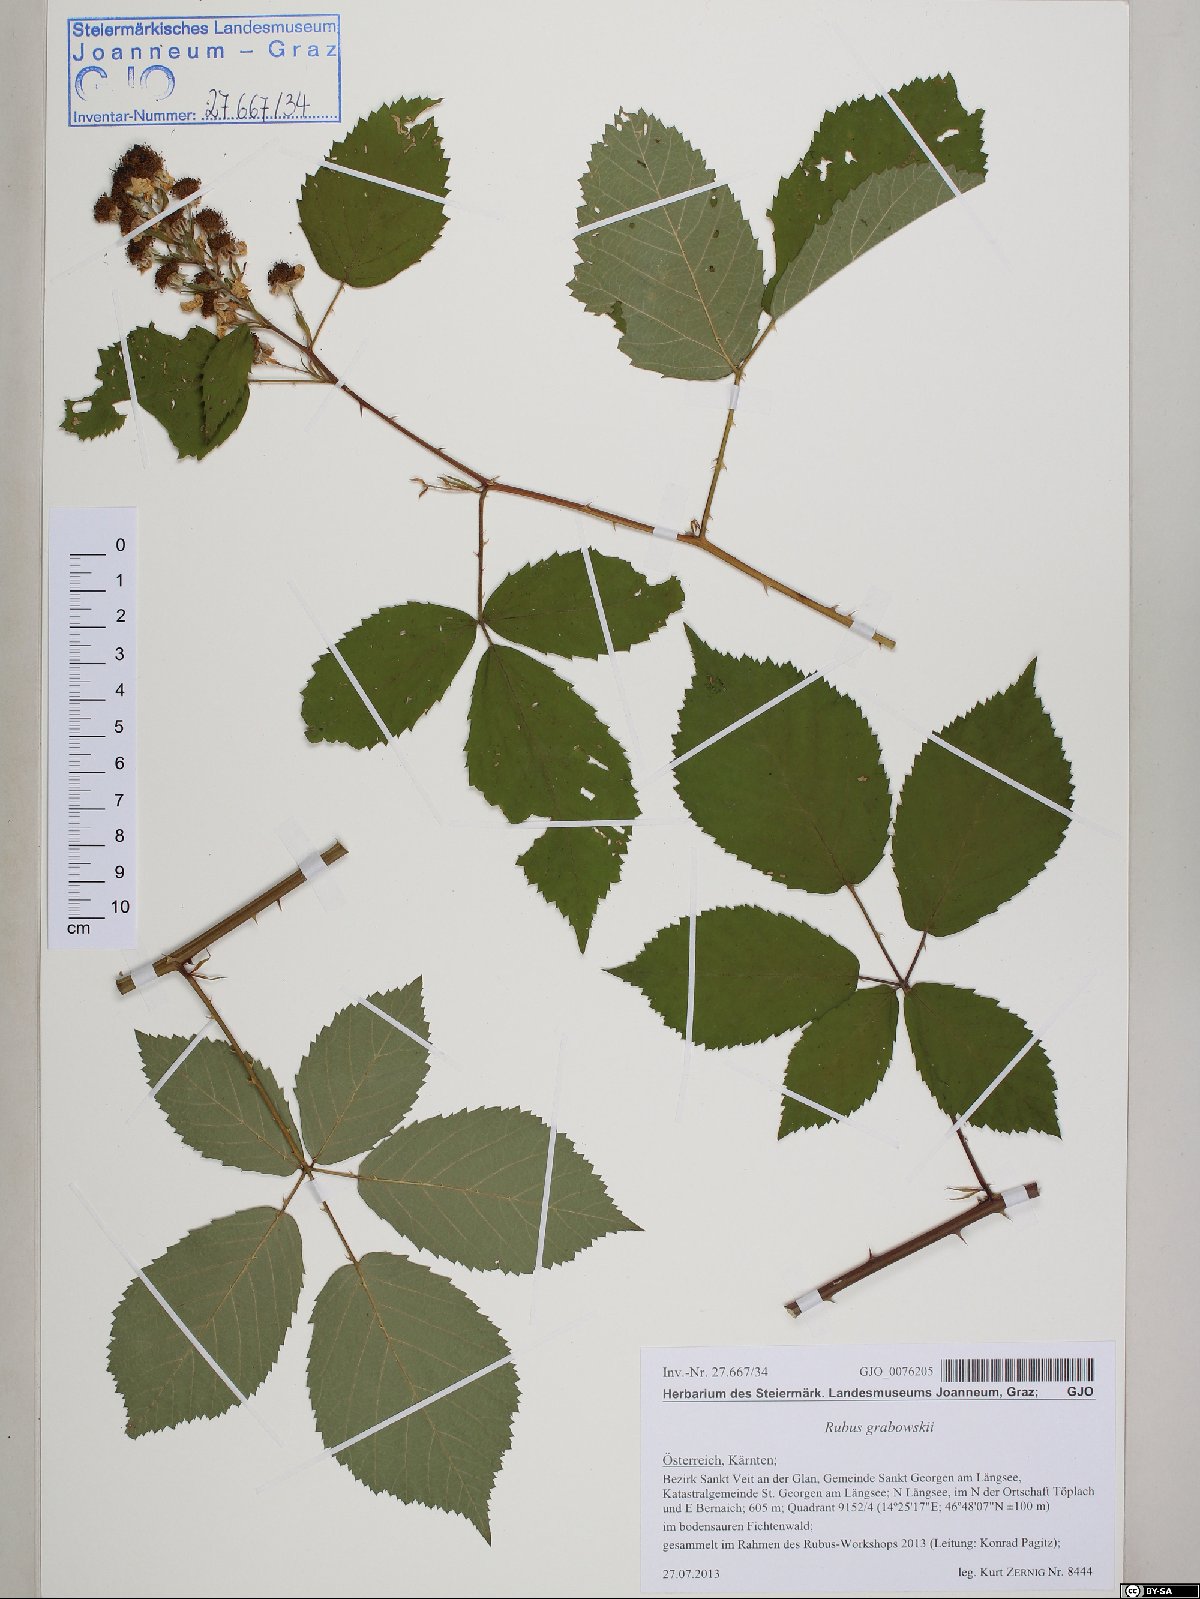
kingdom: Plantae
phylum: Tracheophyta
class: Magnoliopsida
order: Rosales
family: Rosaceae
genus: Rubus
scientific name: Rubus grabowskii
